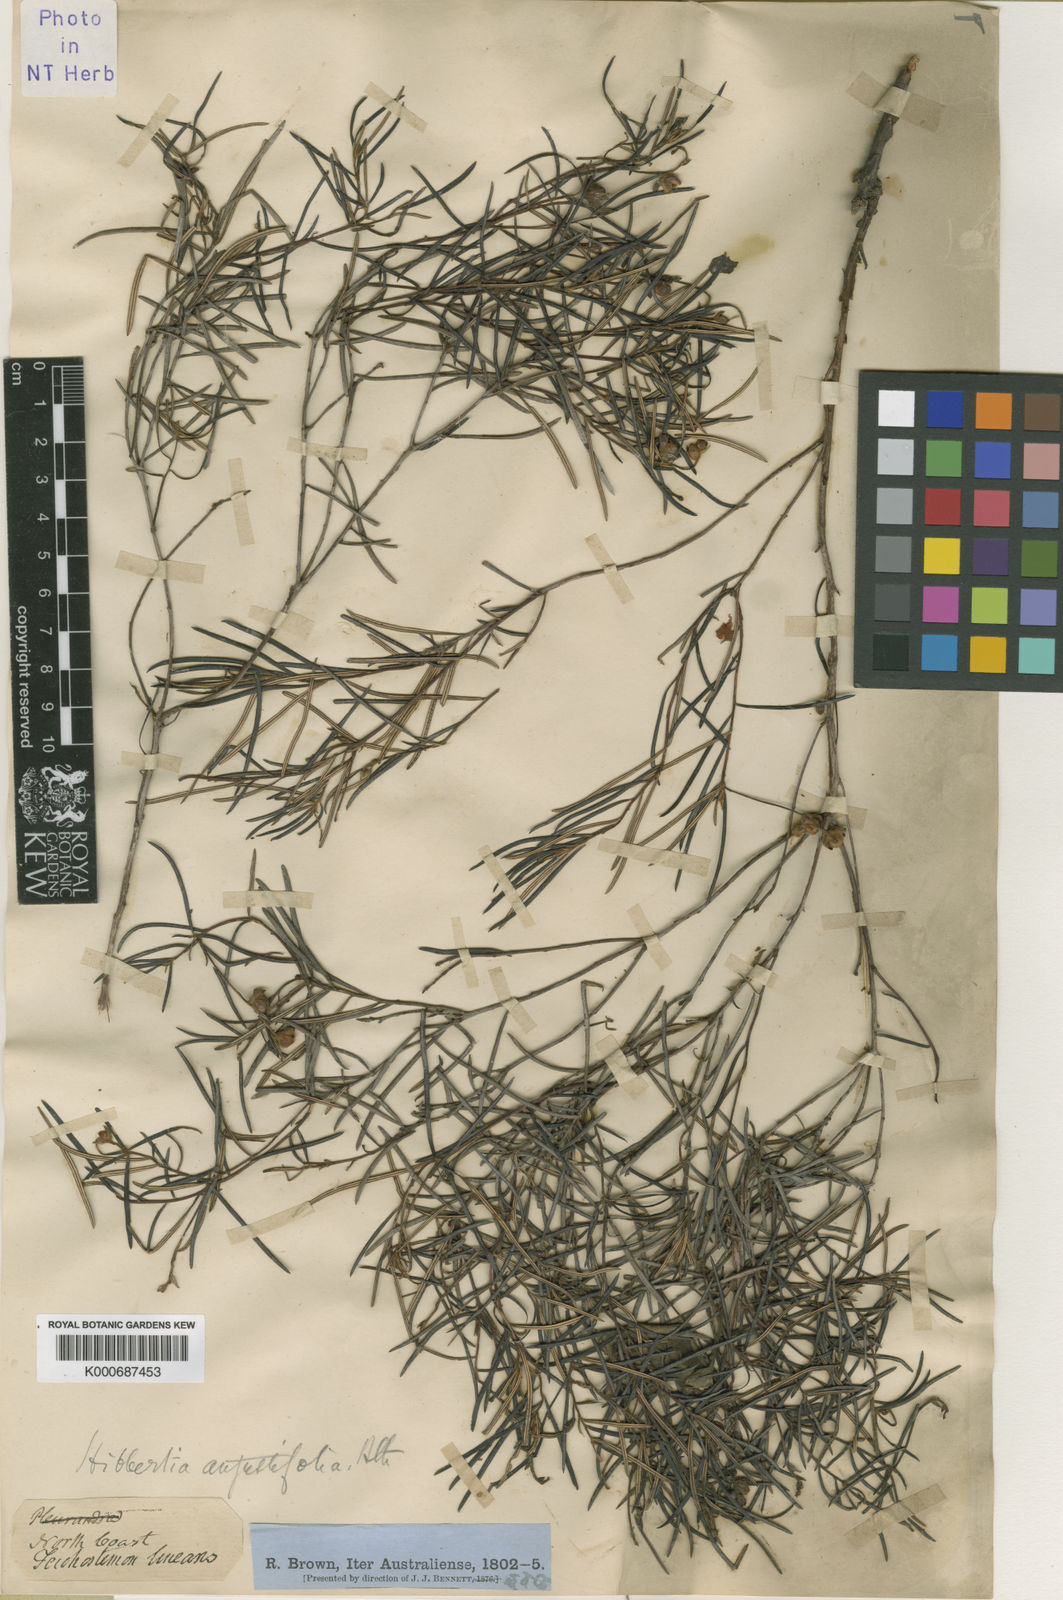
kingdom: Plantae
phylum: Tracheophyta
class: Magnoliopsida
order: Dilleniales
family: Dilleniaceae
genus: Hibbertia
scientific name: Hibbertia fasciculata
